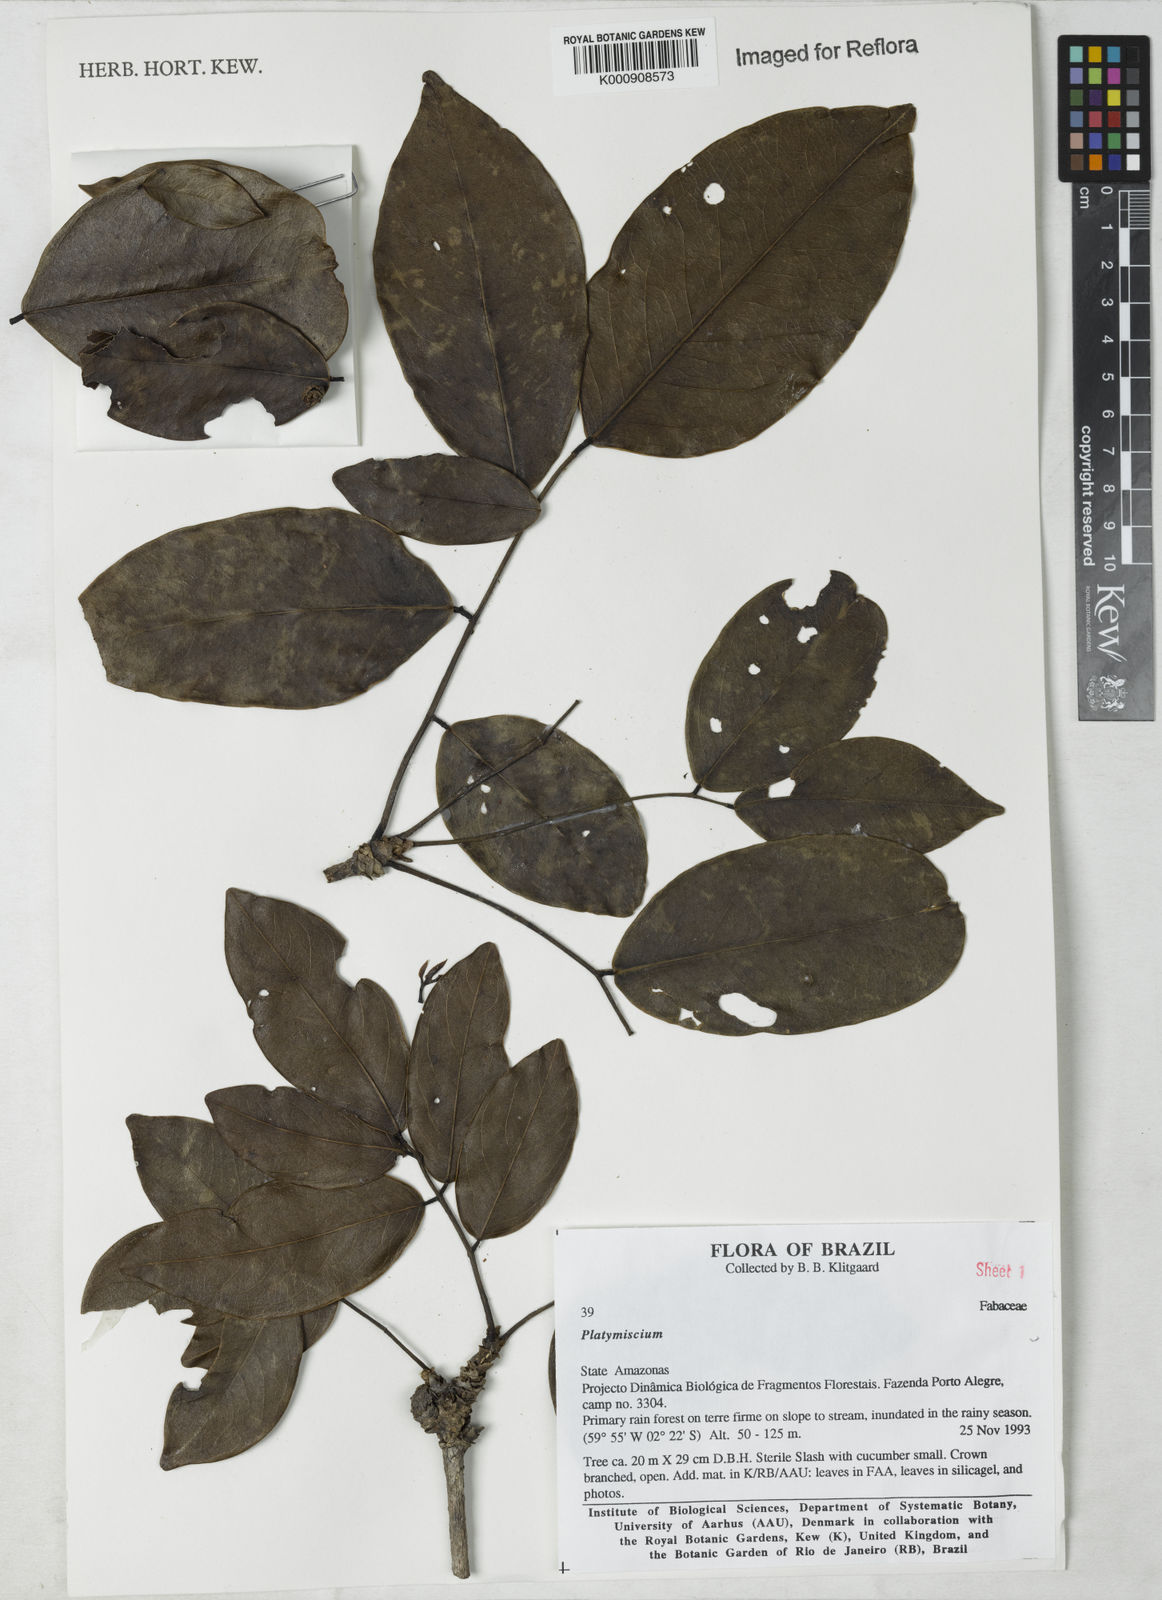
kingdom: Plantae
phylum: Tracheophyta
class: Magnoliopsida
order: Fabales
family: Fabaceae
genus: Platymiscium
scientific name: Platymiscium
